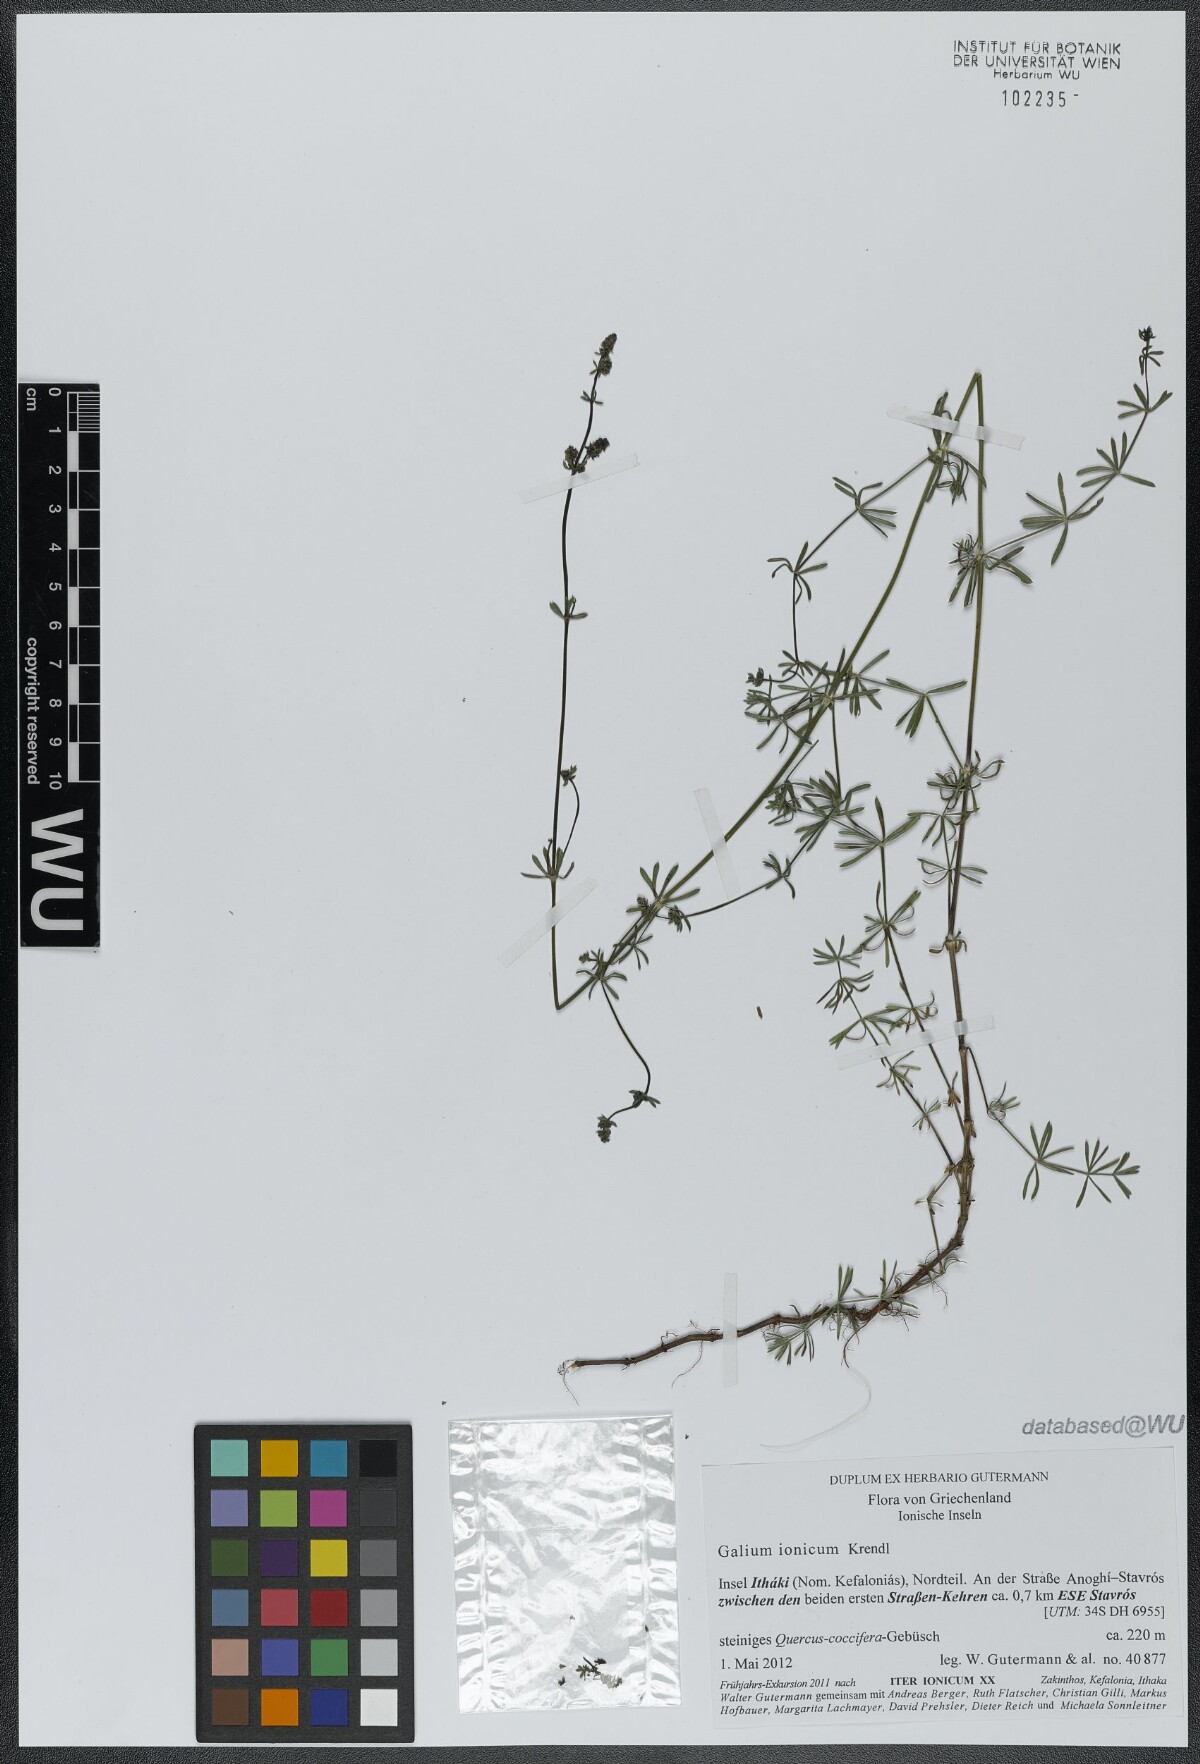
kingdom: Plantae
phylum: Tracheophyta
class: Magnoliopsida
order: Gentianales
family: Rubiaceae
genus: Galium
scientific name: Galium ionicum
